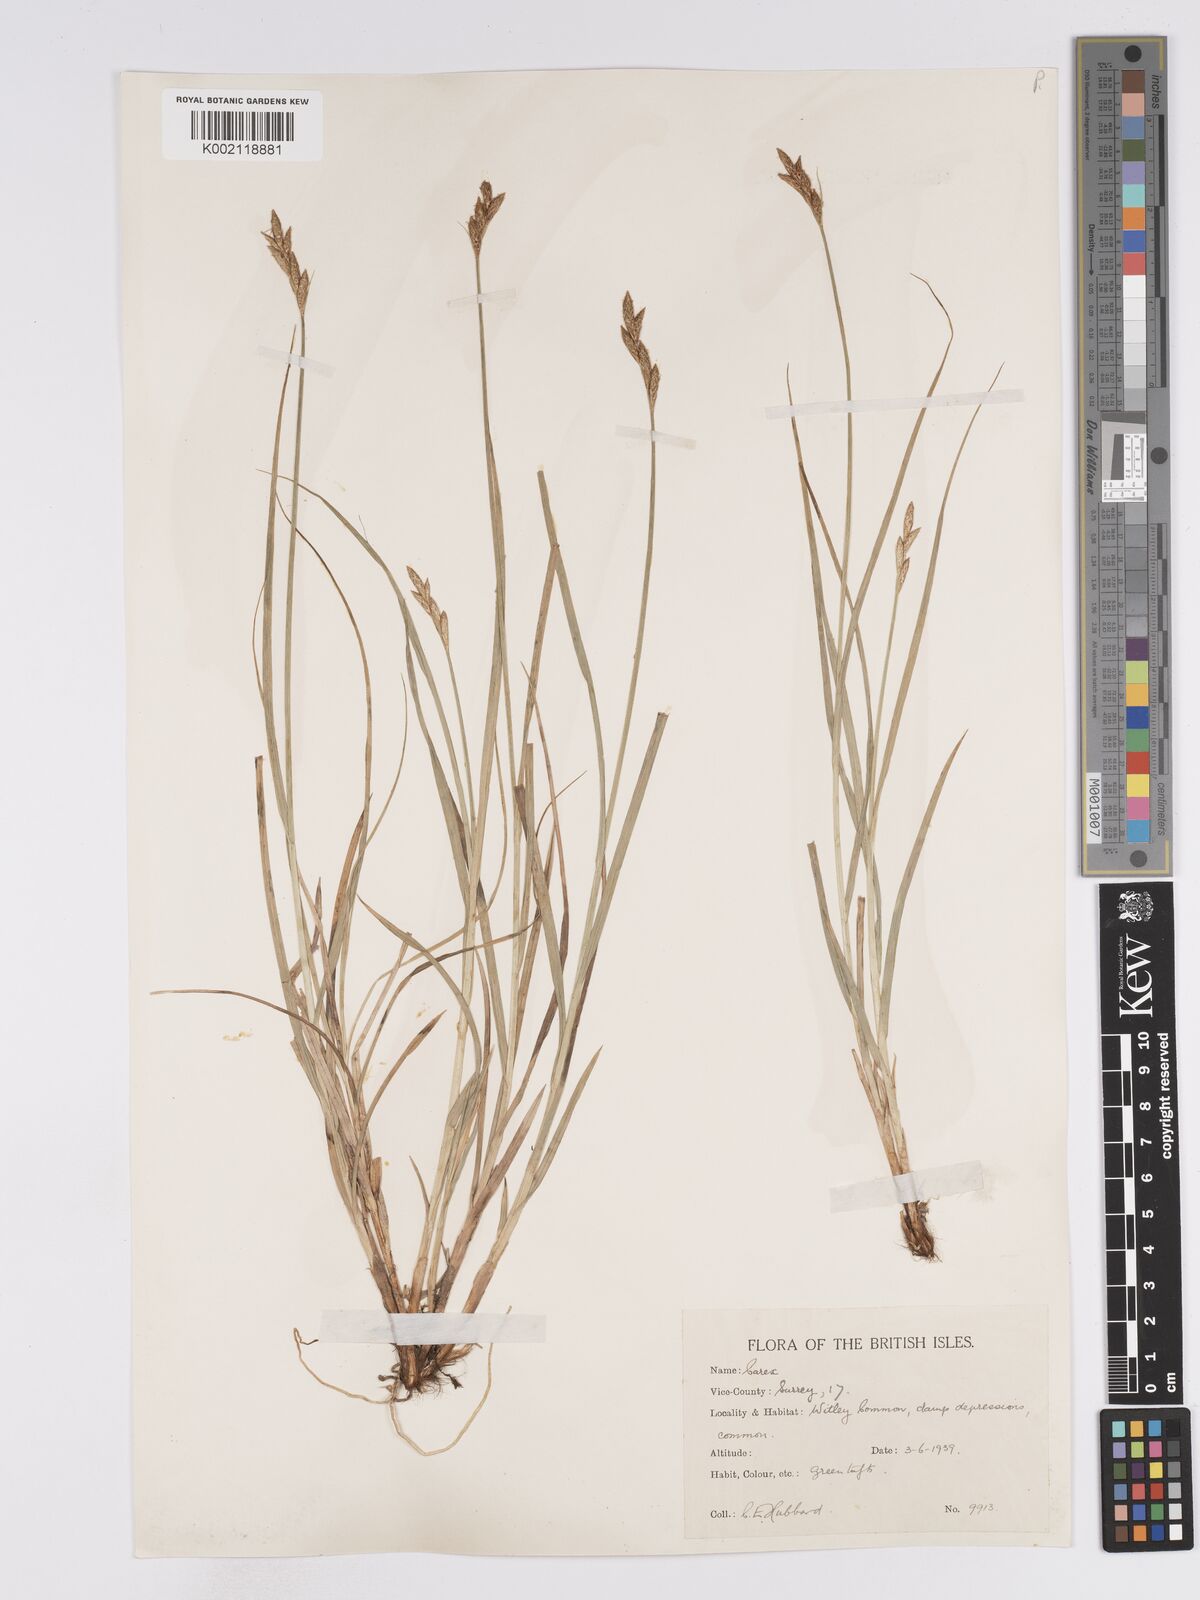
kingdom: Plantae
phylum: Tracheophyta
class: Liliopsida
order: Poales
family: Cyperaceae
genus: Carex
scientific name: Carex leporina
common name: Oval sedge
